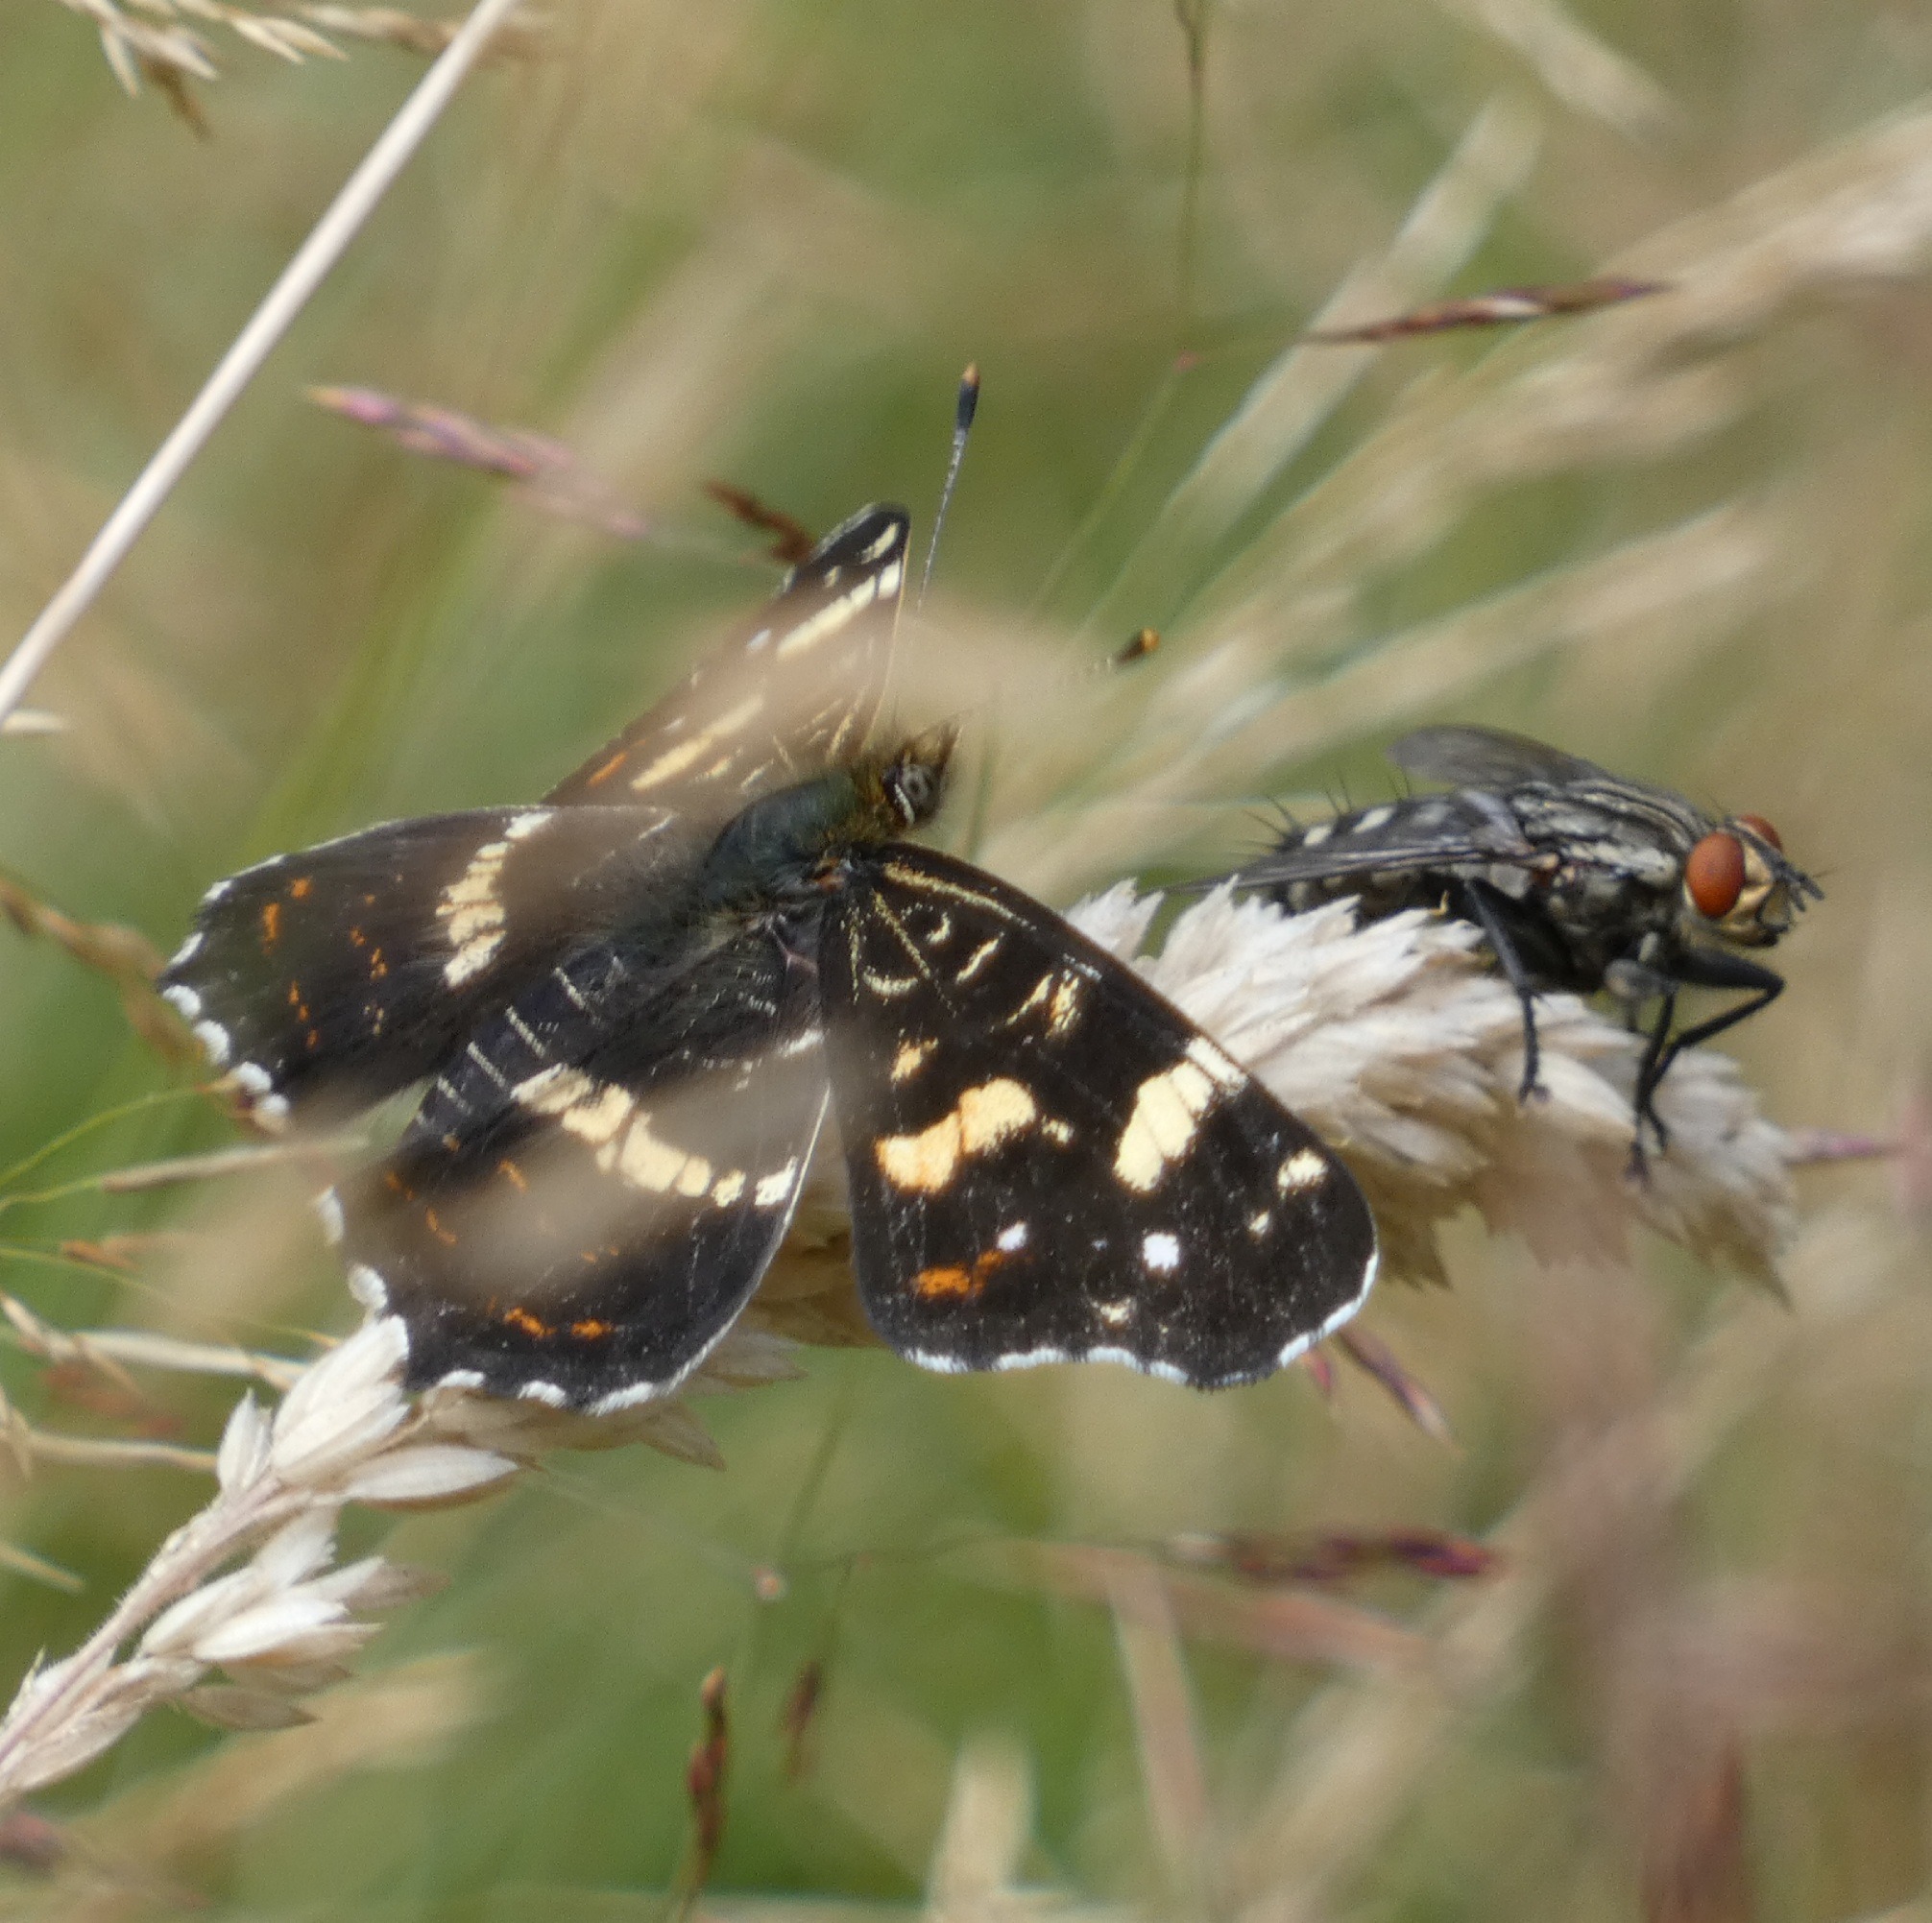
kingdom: Animalia
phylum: Arthropoda
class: Insecta
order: Lepidoptera
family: Nymphalidae
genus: Araschnia
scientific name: Araschnia levana
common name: Nældesommerfugl
